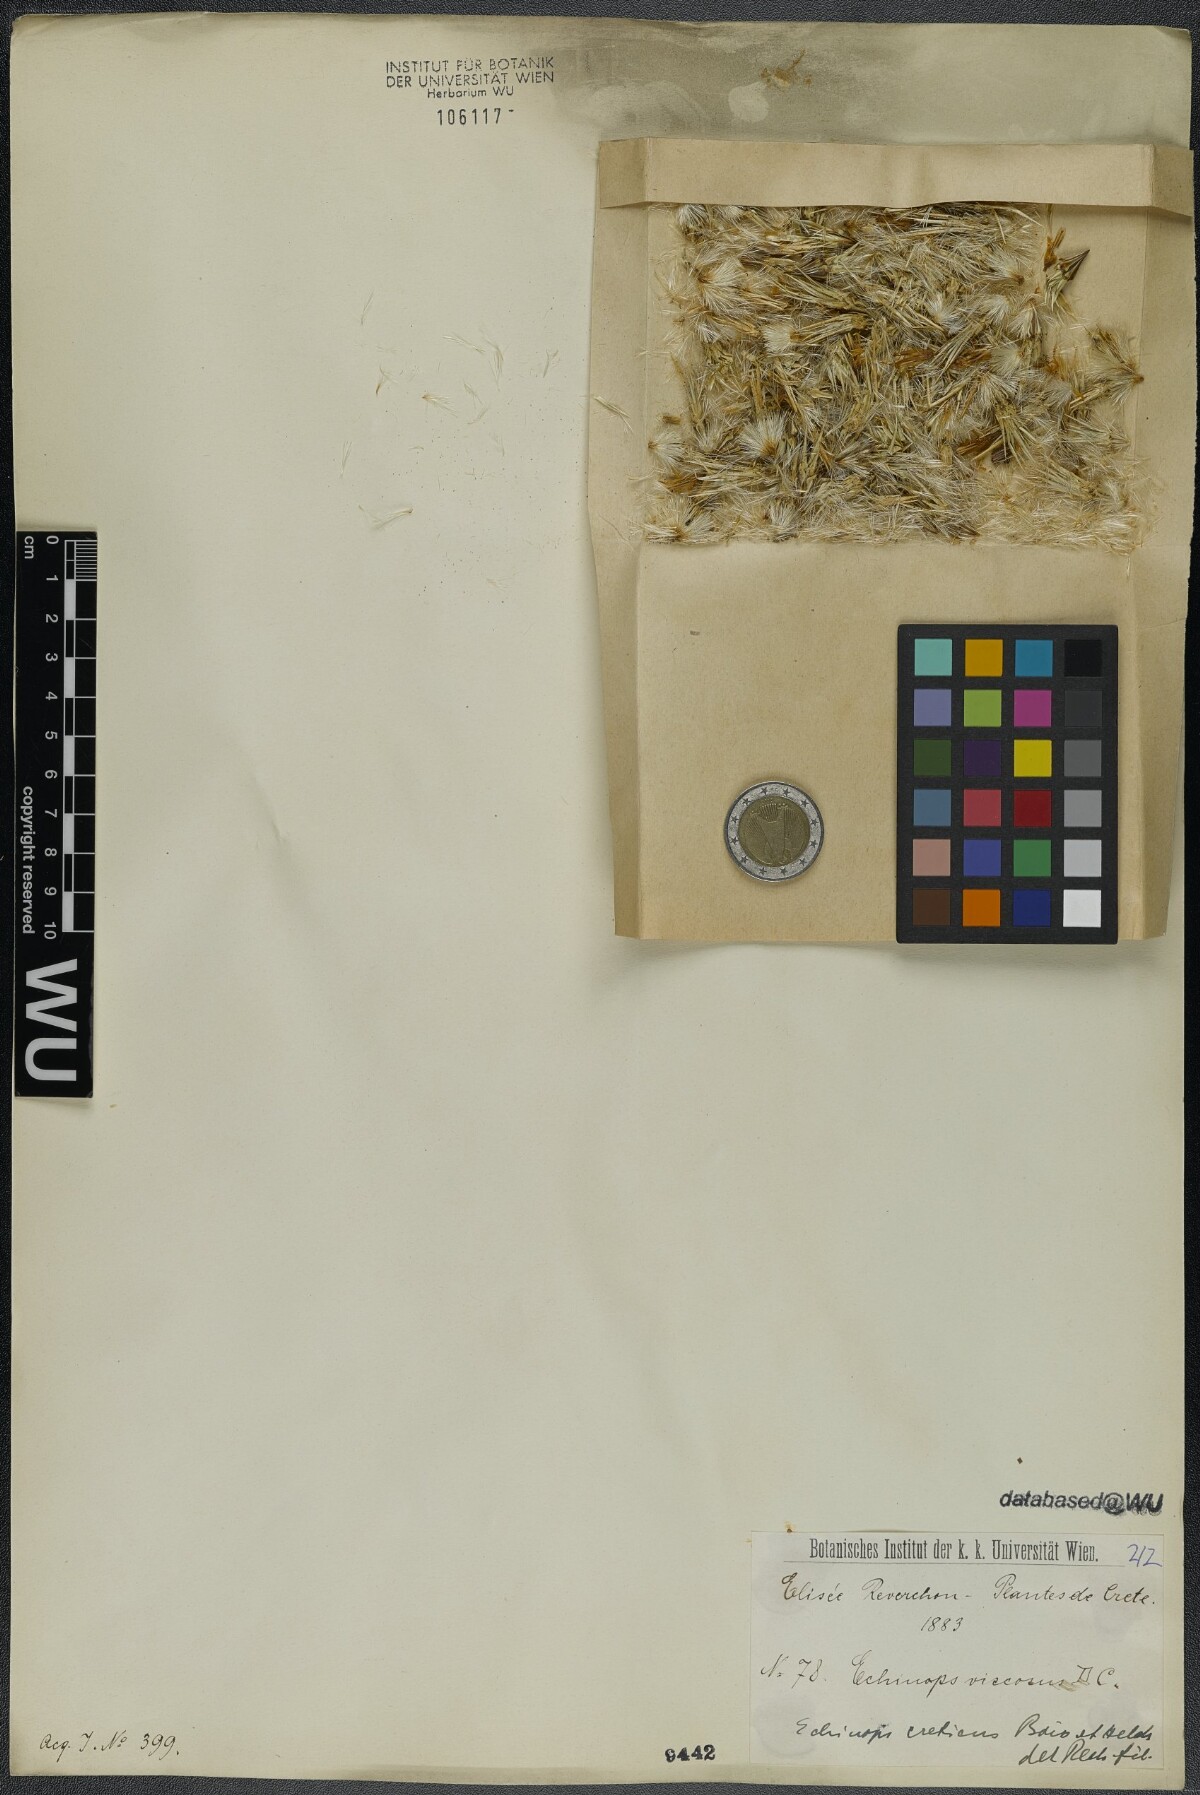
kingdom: Plantae
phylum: Tracheophyta
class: Magnoliopsida
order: Asterales
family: Asteraceae
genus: Echinops
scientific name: Echinops spinosissimus
